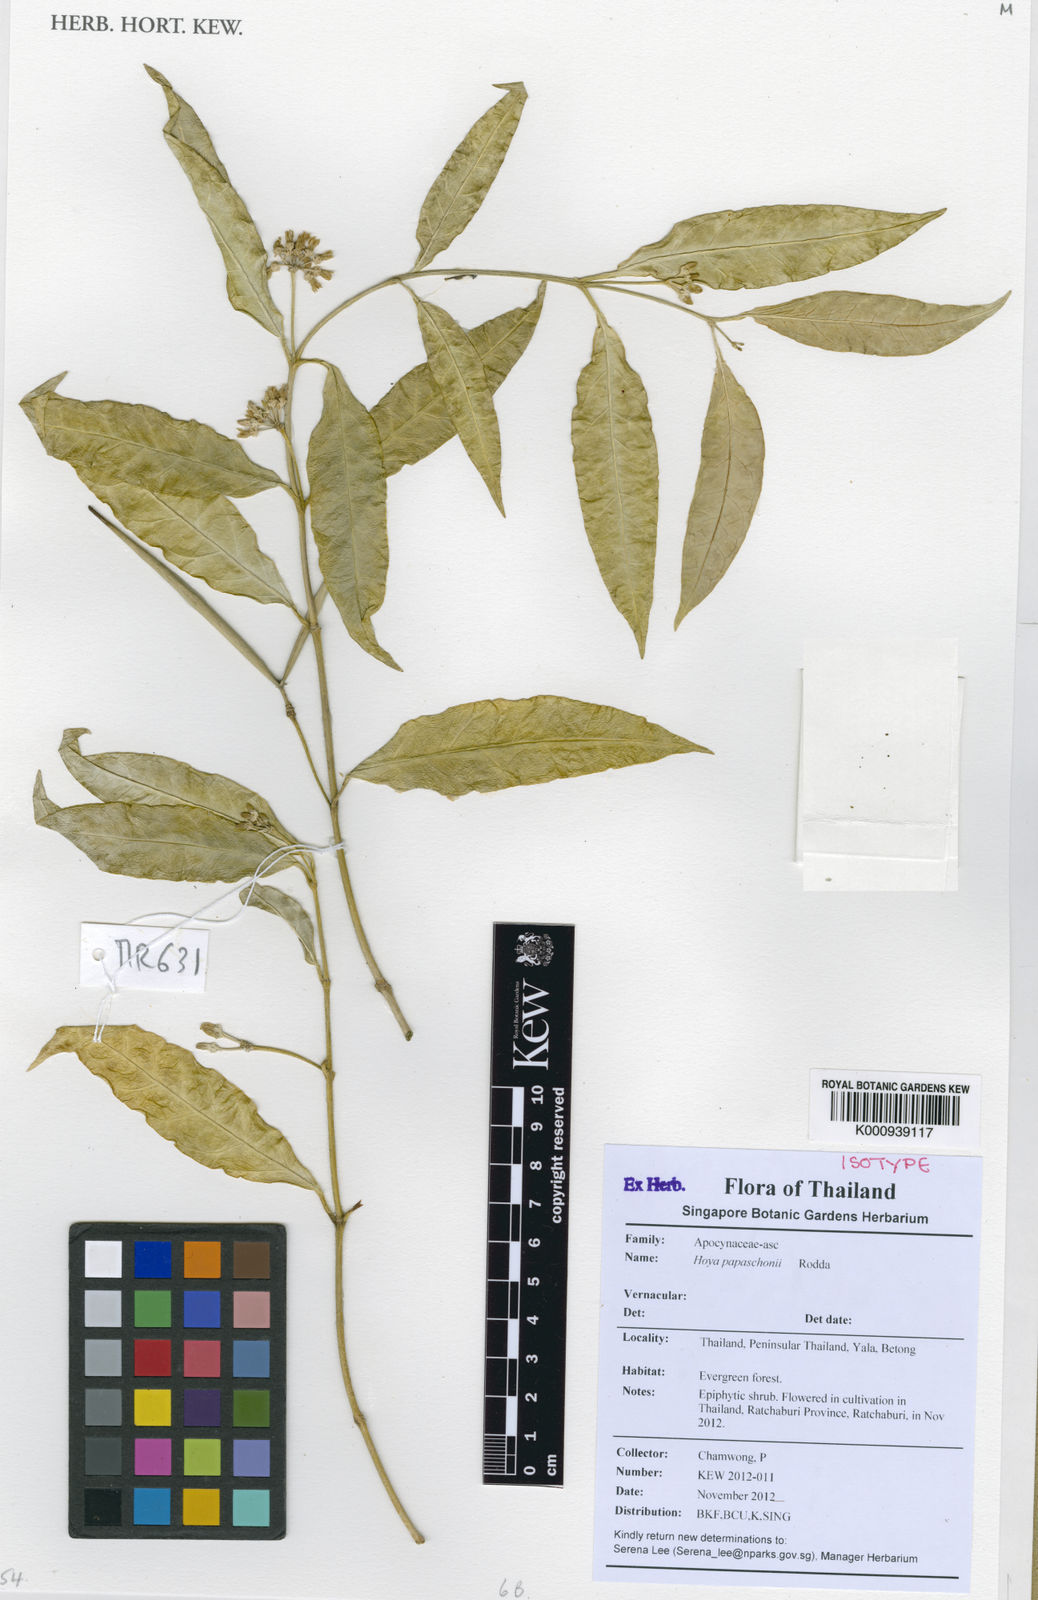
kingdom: Plantae
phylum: Tracheophyta
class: Magnoliopsida
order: Gentianales
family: Apocynaceae
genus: Hoya
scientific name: Hoya papaschonii
